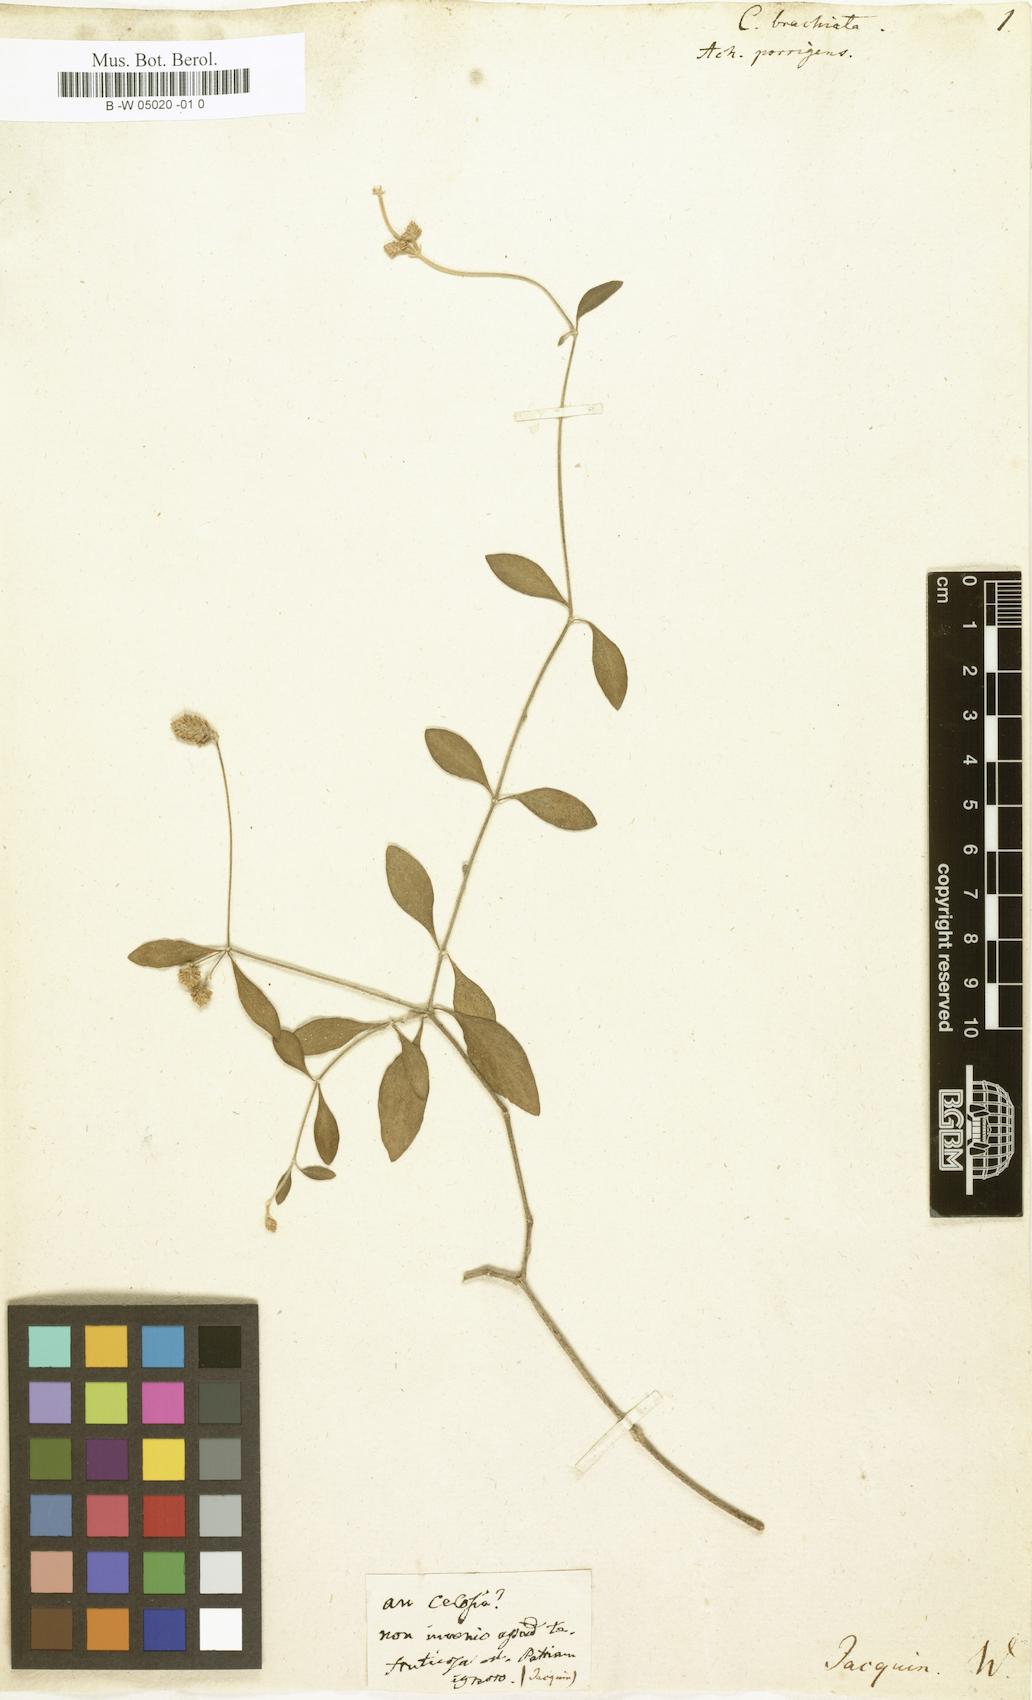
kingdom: Plantae
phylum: Tracheophyta
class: Magnoliopsida
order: Caryophyllales
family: Amaranthaceae
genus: Celosia
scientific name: Celosia
